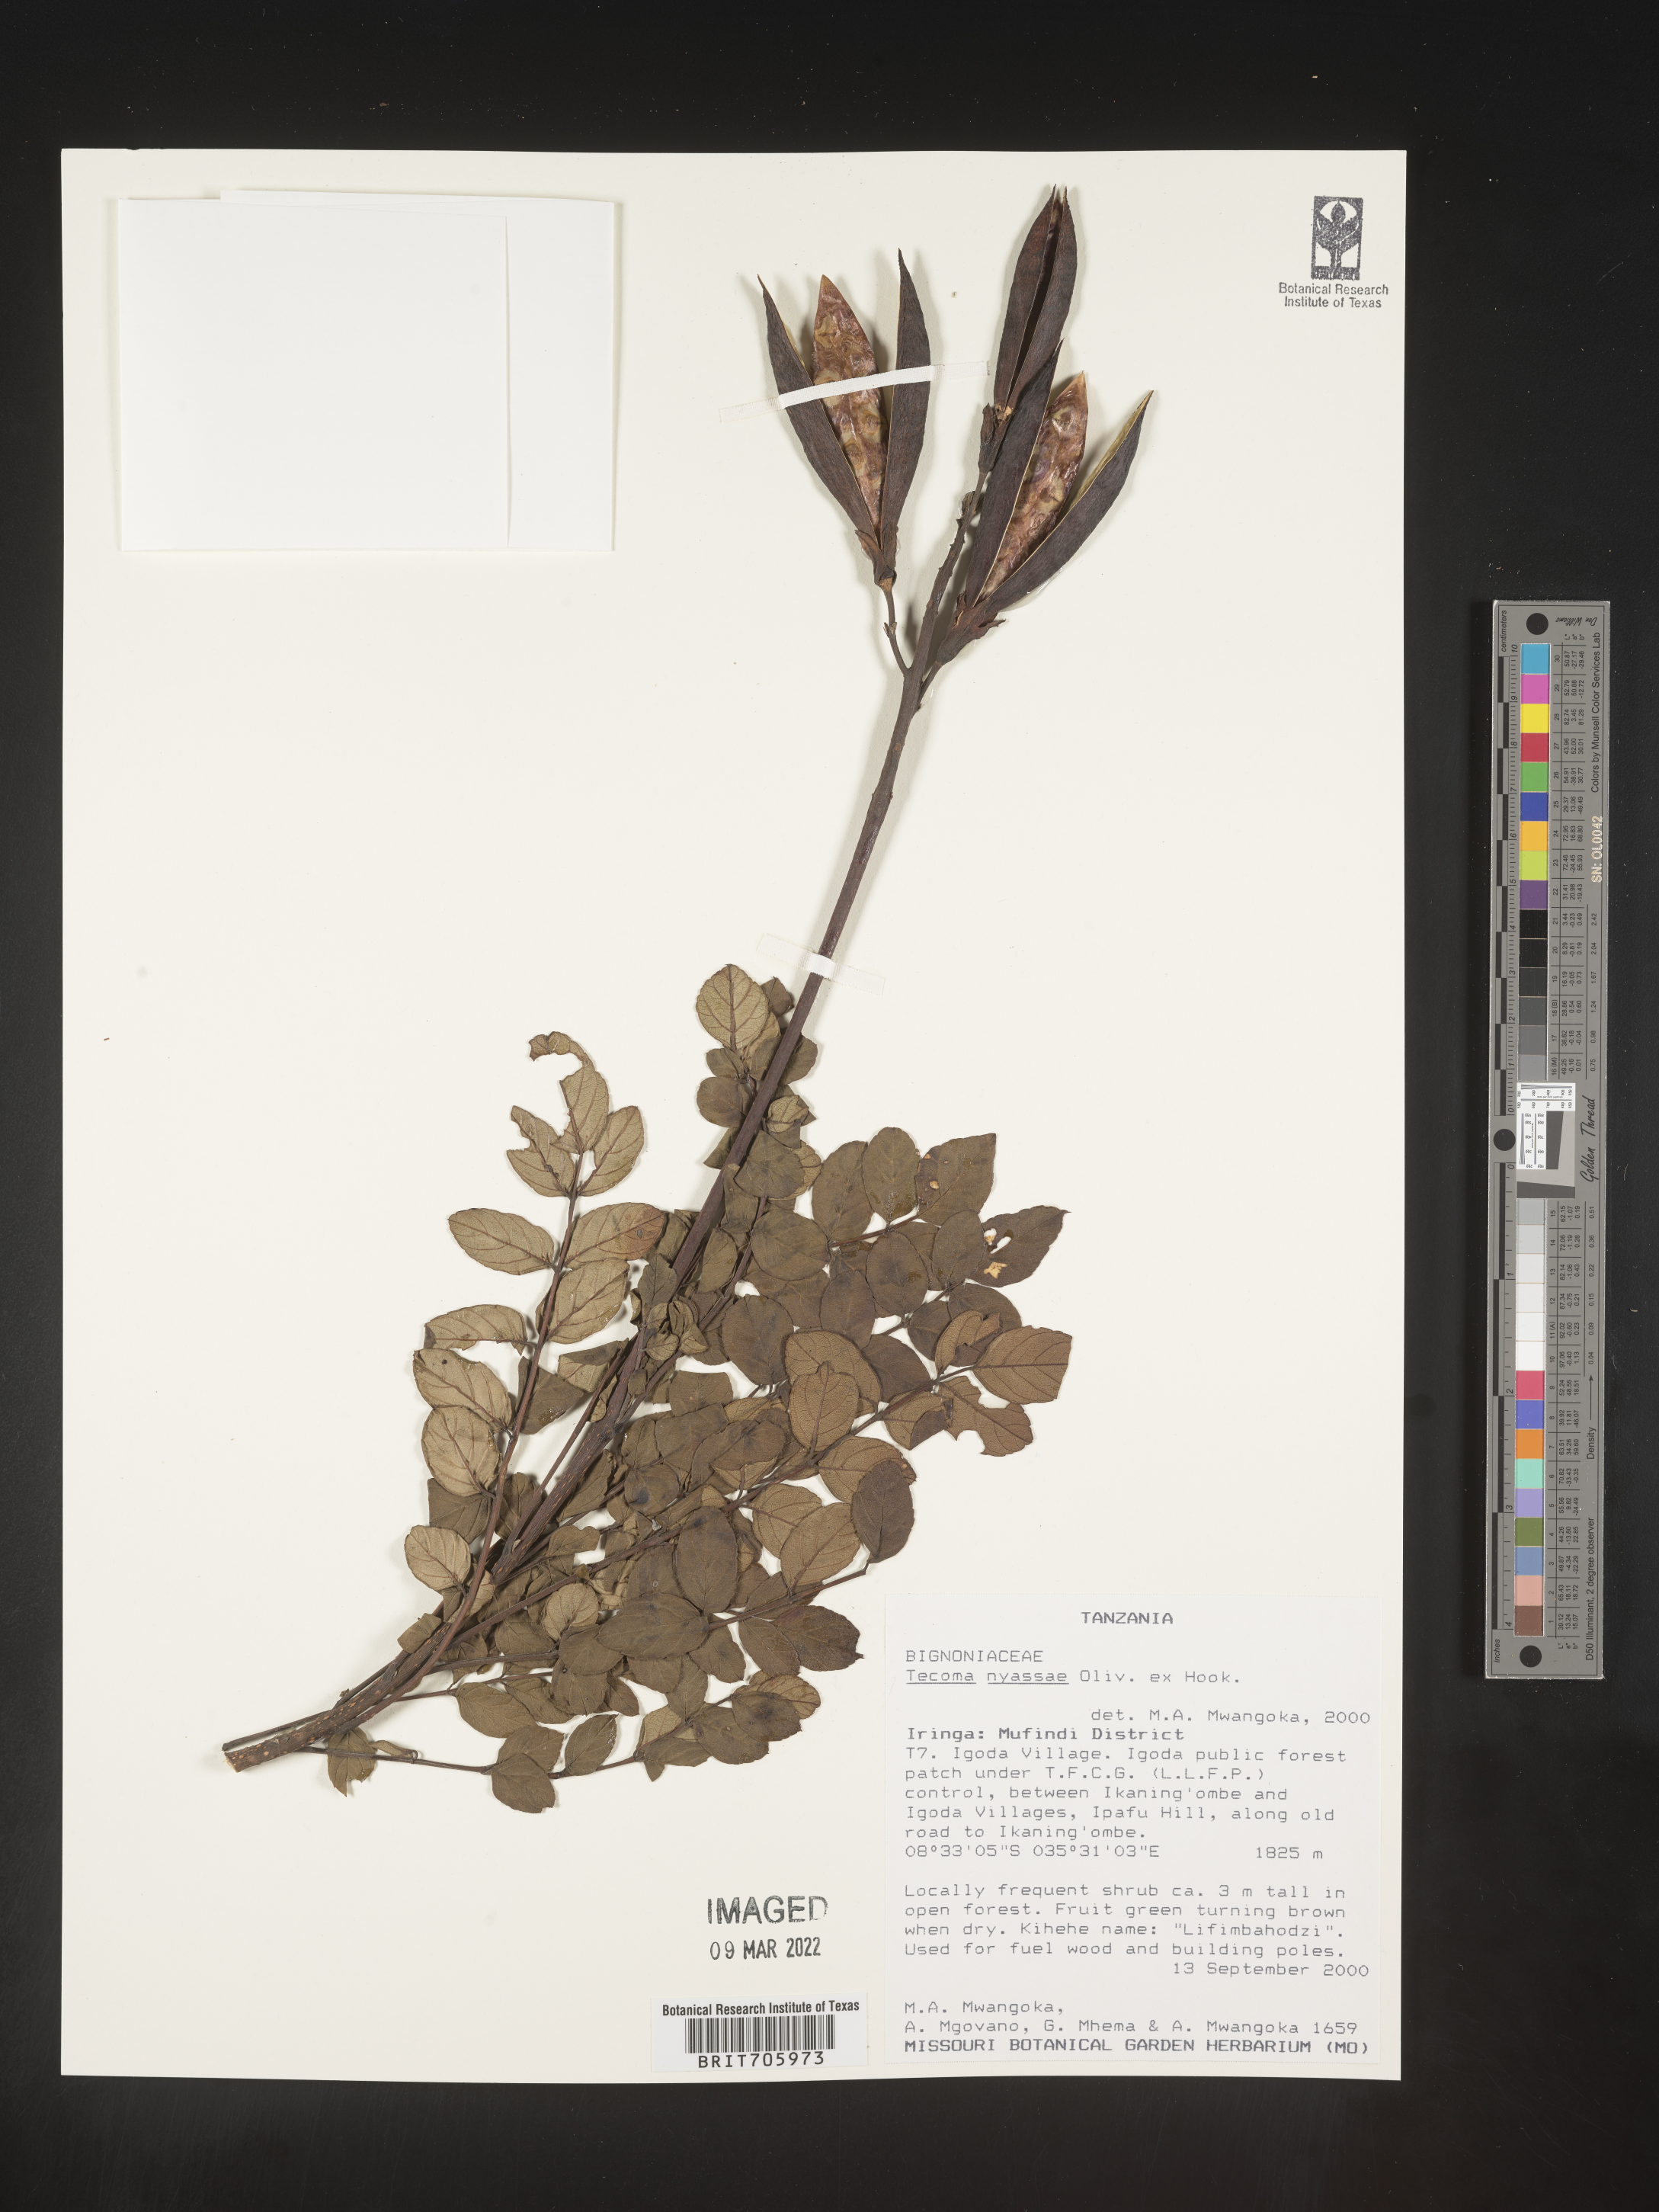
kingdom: Plantae
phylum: Tracheophyta
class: Magnoliopsida
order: Lamiales
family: Bignoniaceae
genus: Tecoma
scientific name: Tecoma
